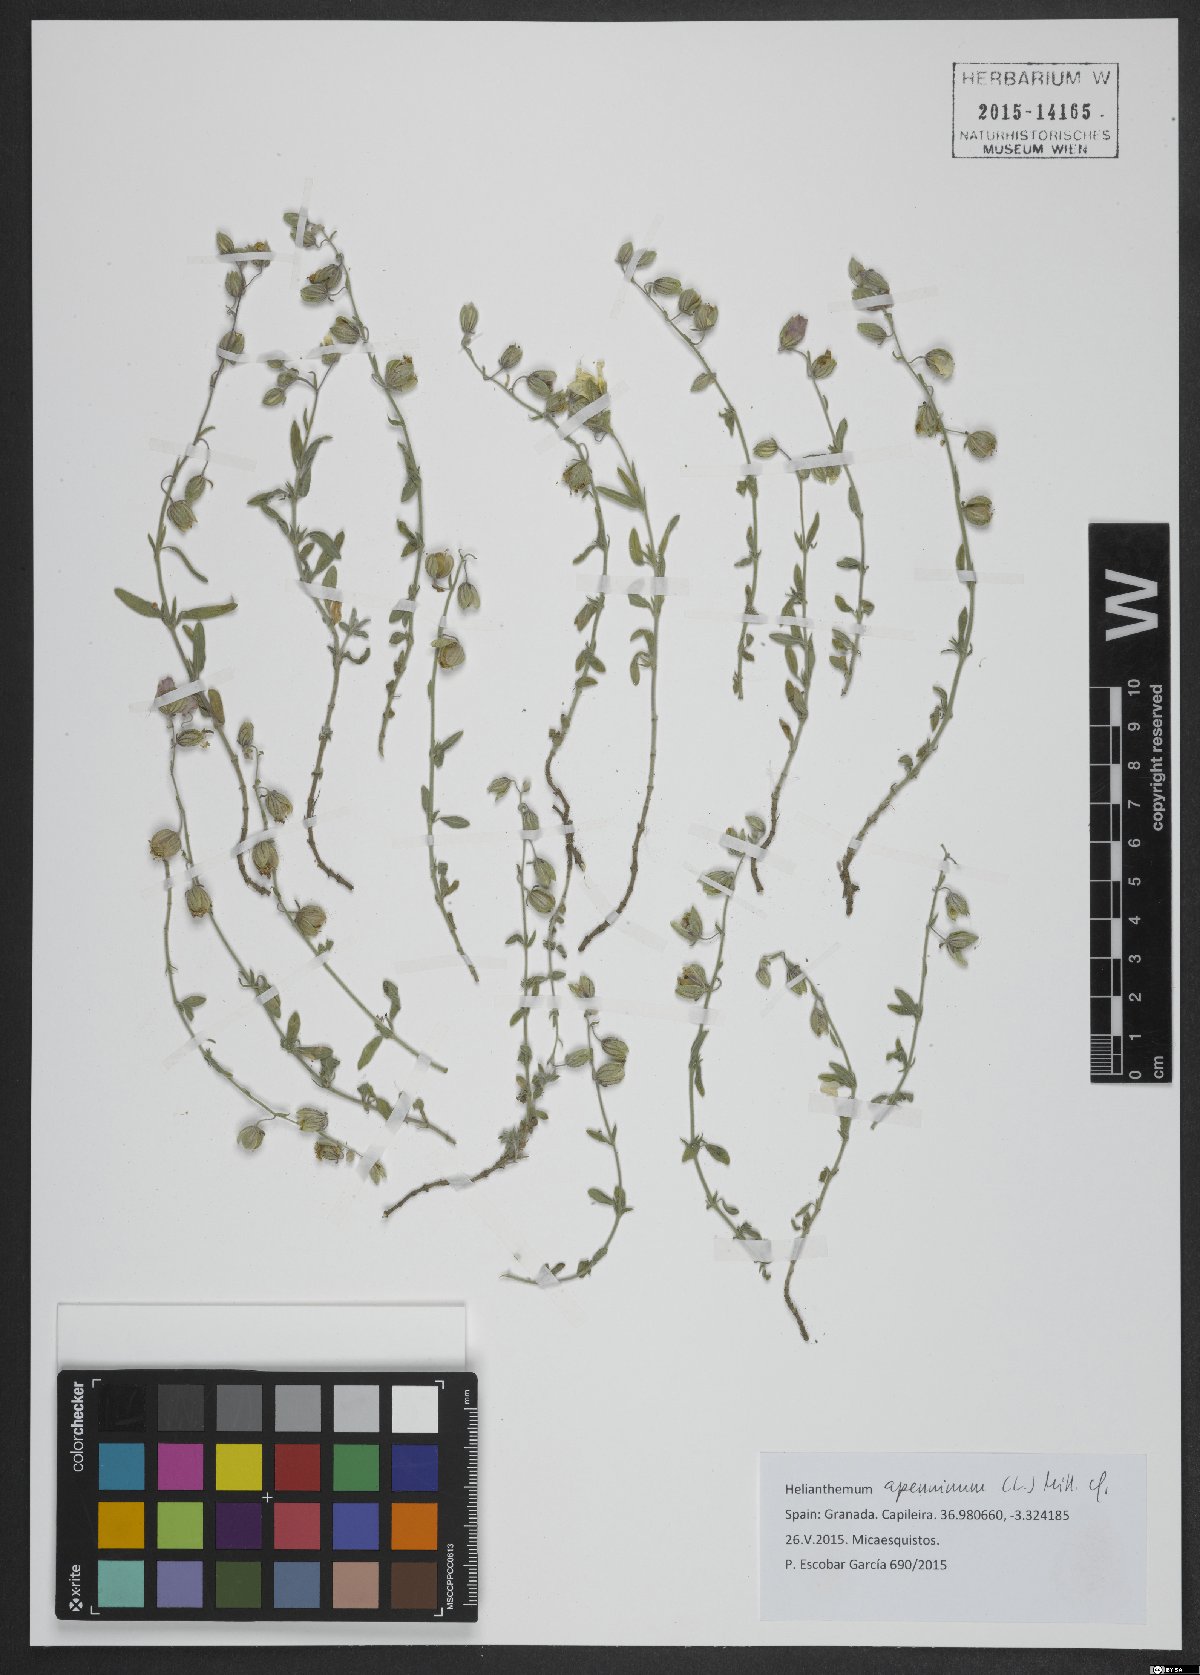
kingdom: Plantae
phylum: Tracheophyta
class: Magnoliopsida
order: Malvales
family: Cistaceae
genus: Helianthemum
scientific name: Helianthemum apenninum
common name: White rock-rose
